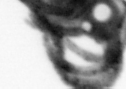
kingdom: Animalia
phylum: Annelida
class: Polychaeta
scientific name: Polychaeta
